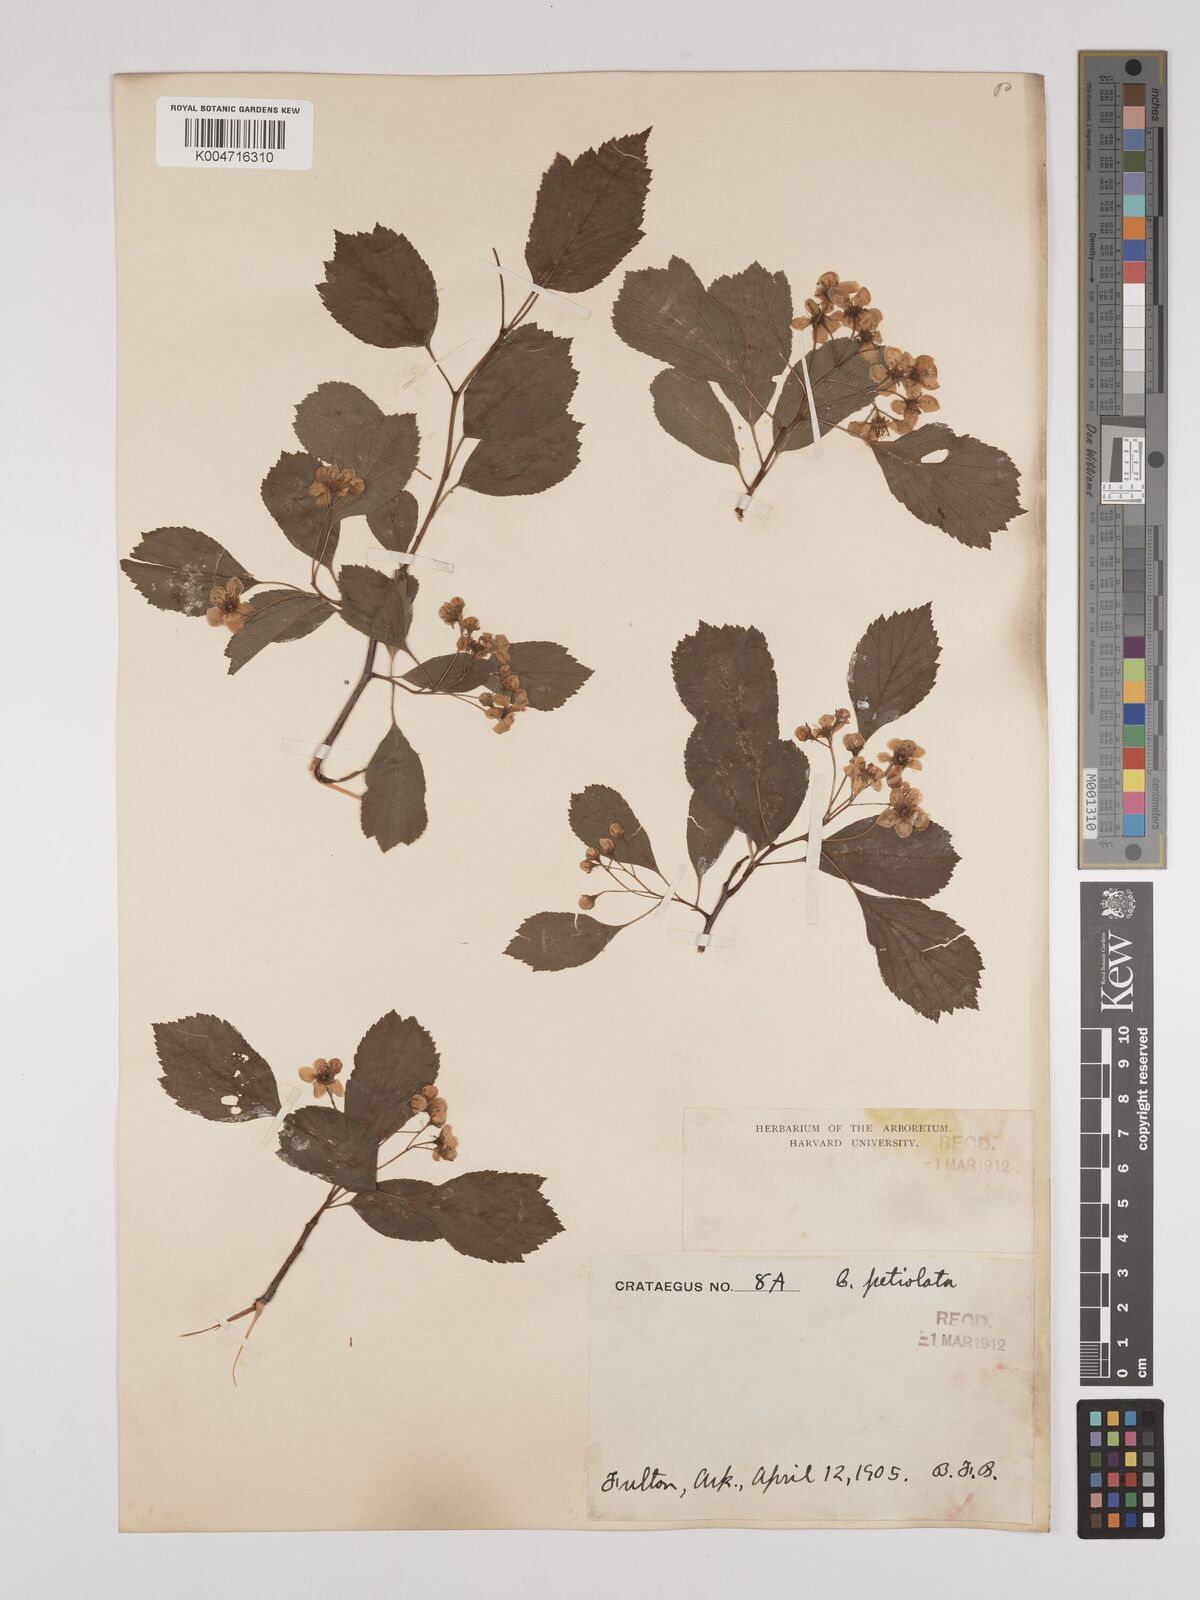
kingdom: Plantae
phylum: Tracheophyta
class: Magnoliopsida
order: Rosales
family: Rosaceae
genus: Crataegus
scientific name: Crataegus petiolata
